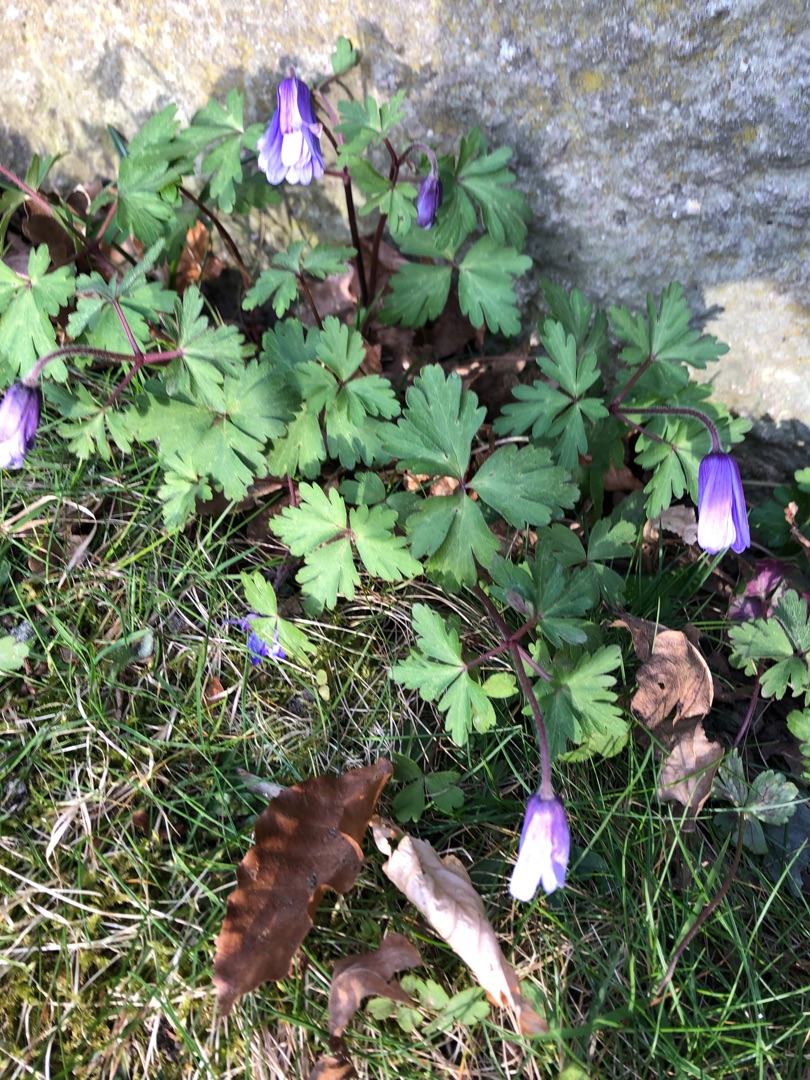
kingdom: Plantae
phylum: Tracheophyta
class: Magnoliopsida
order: Ranunculales
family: Ranunculaceae
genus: Anemone
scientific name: Anemone blanda
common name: Balkan-anemone
